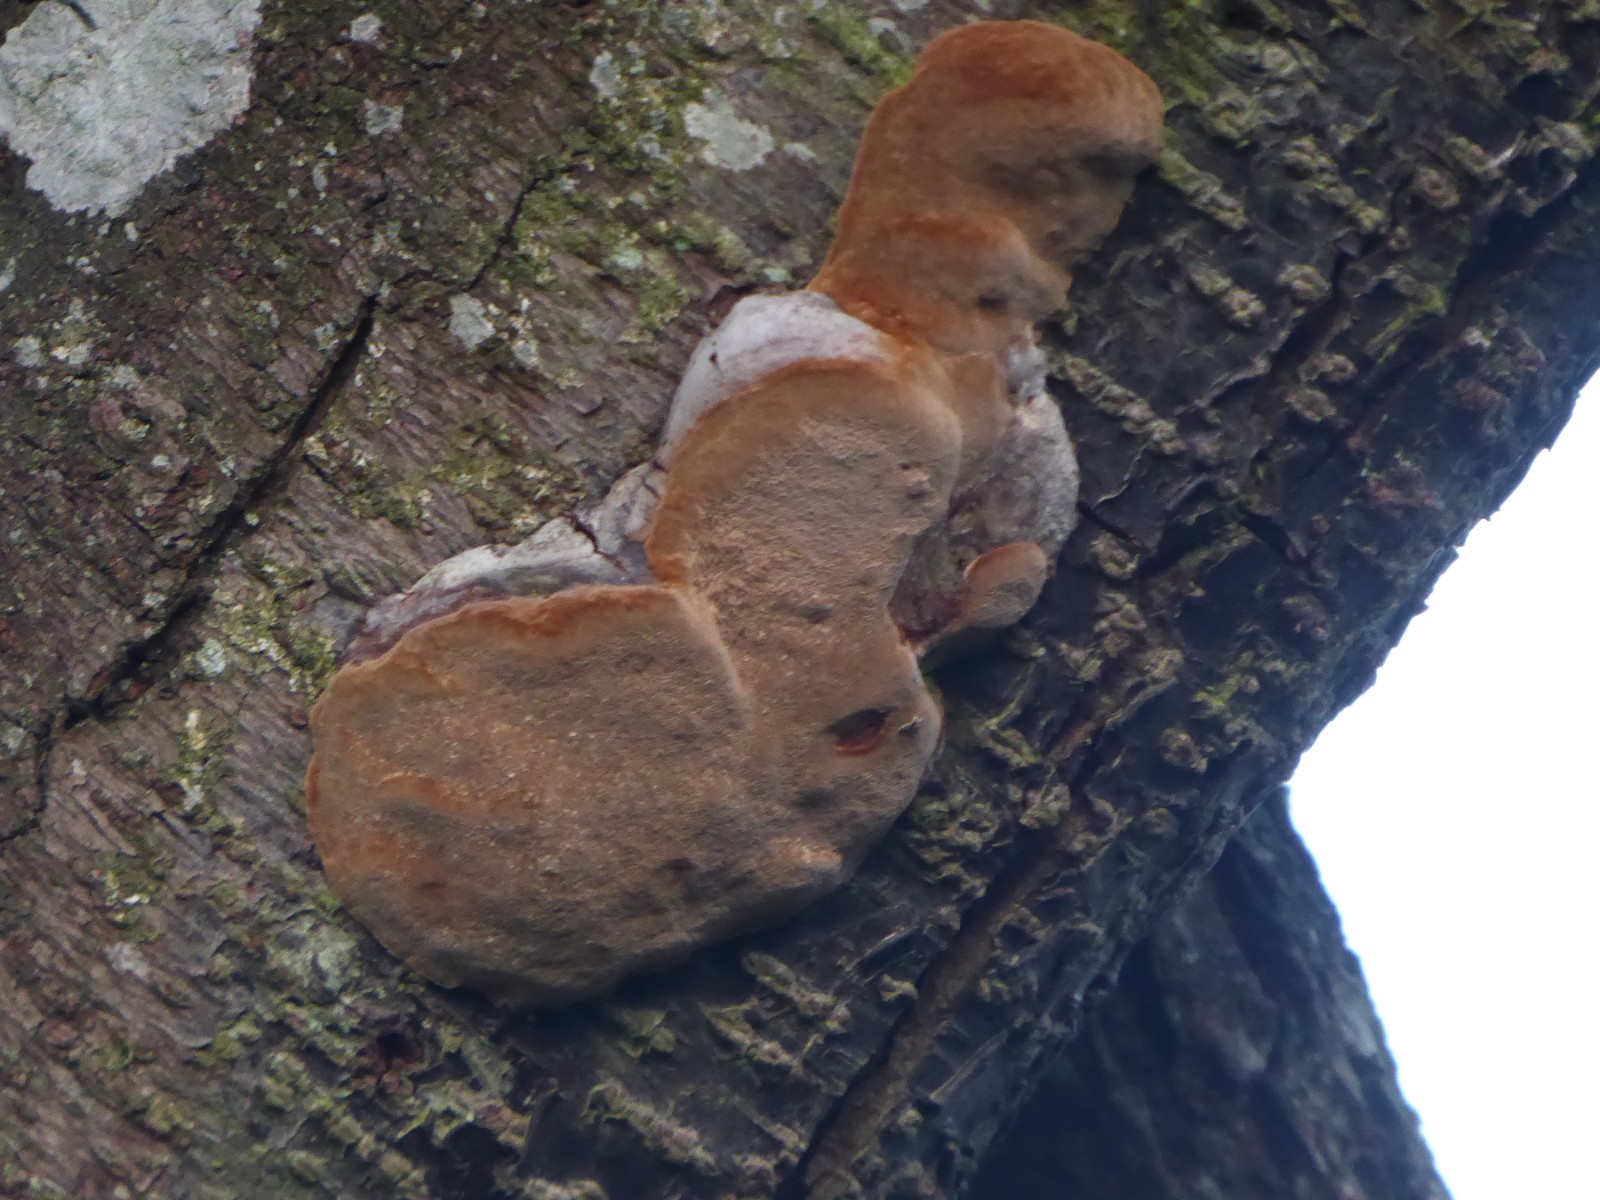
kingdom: Fungi
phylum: Basidiomycota
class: Agaricomycetes
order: Hymenochaetales
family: Hymenochaetaceae
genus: Phellinus
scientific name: Phellinus pomaceus
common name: blomme-ildporesvamp
